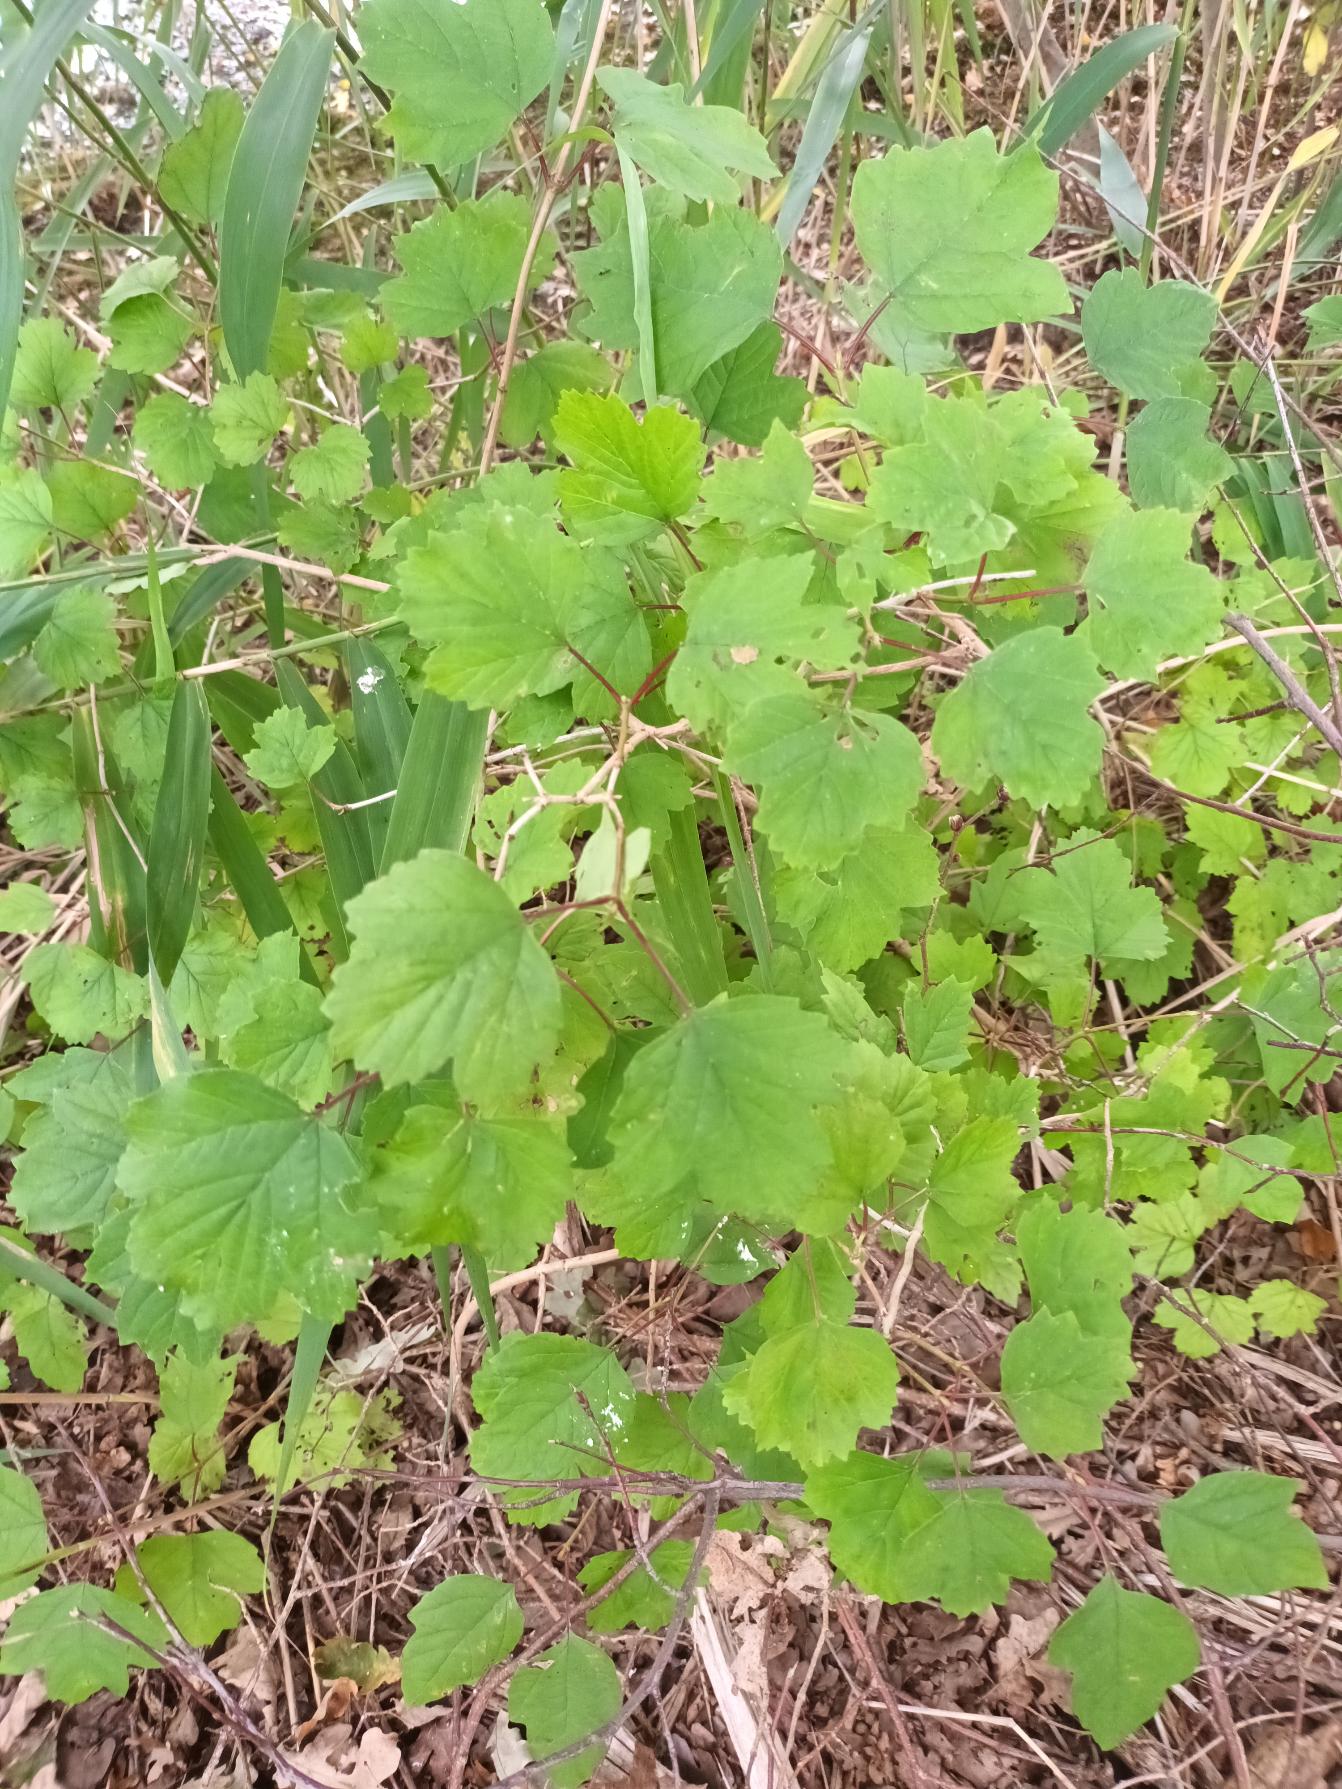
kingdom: Plantae
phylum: Tracheophyta
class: Magnoliopsida
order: Dipsacales
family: Viburnaceae
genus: Viburnum
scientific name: Viburnum opulus
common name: Kvalkved
